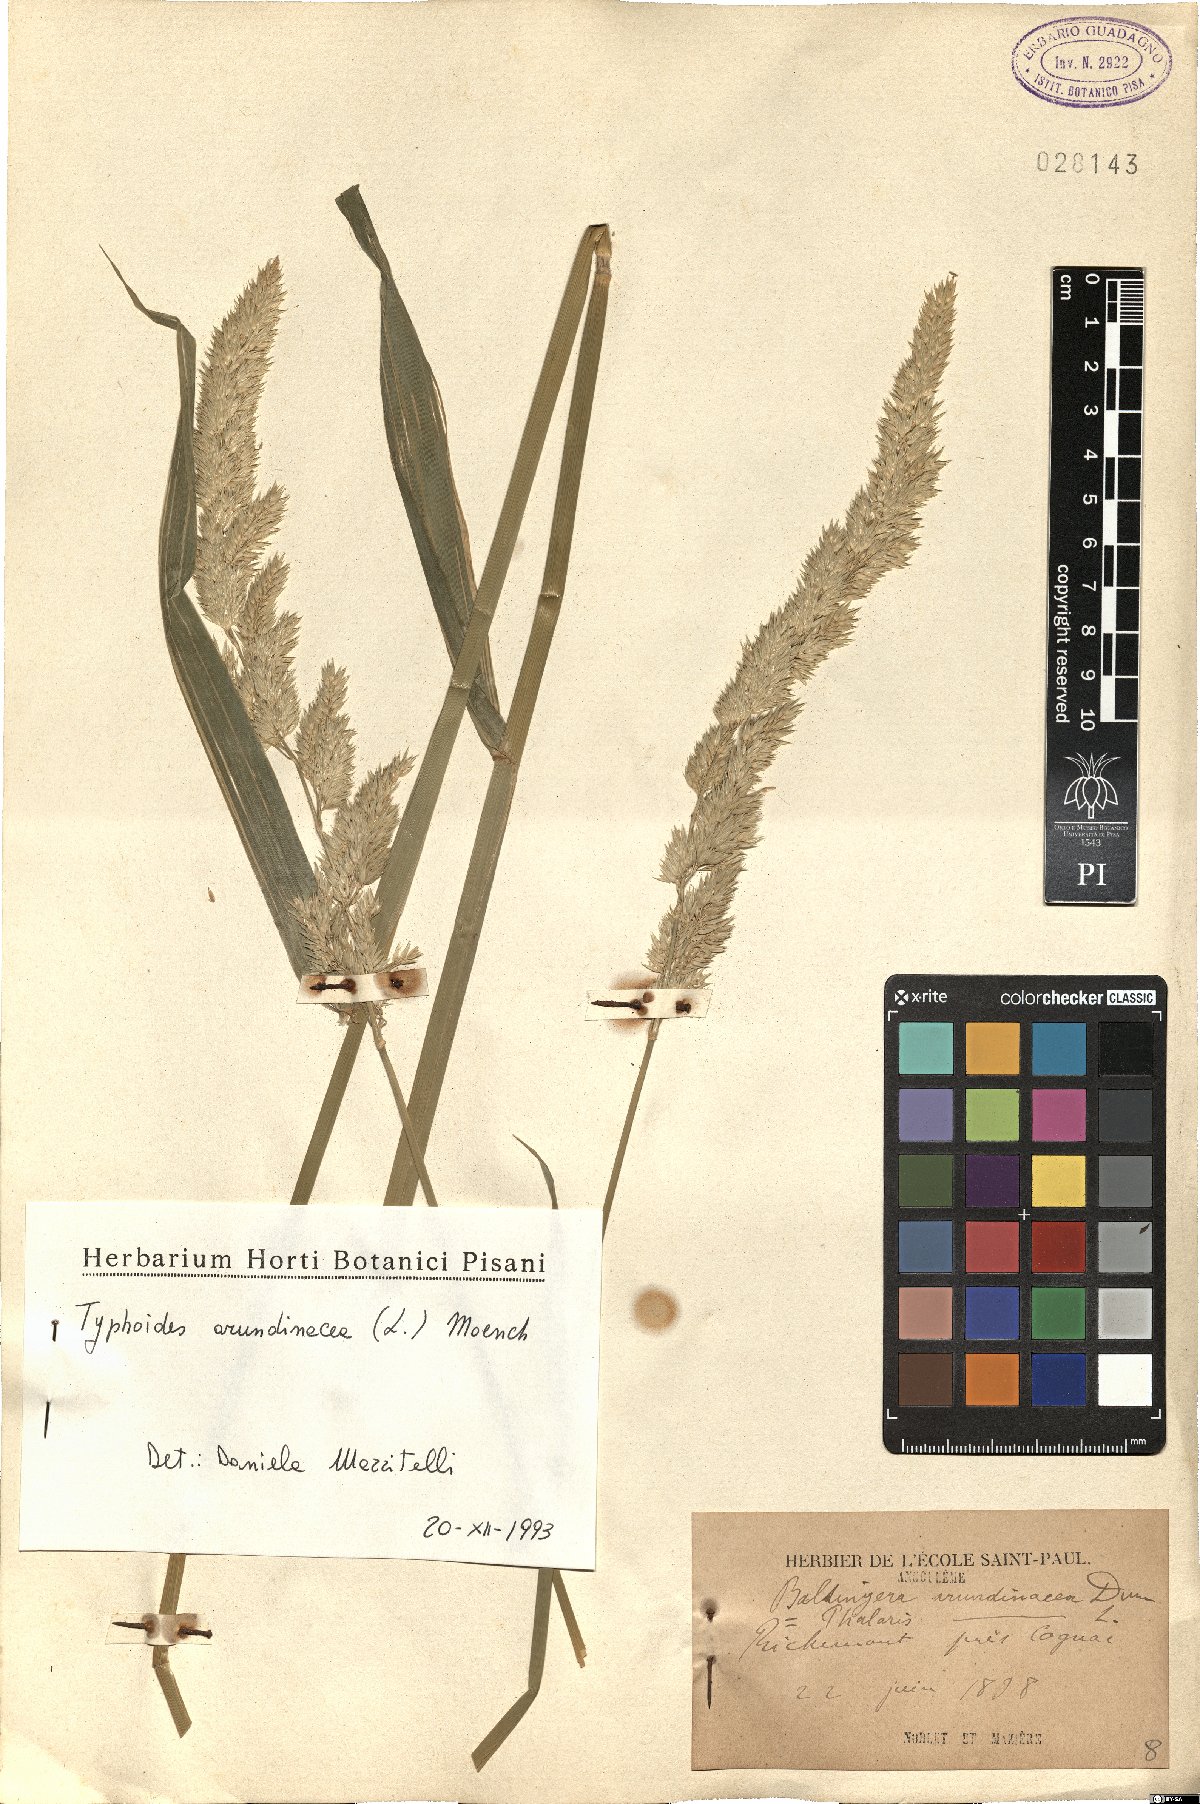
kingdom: Plantae
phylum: Tracheophyta
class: Liliopsida
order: Poales
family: Poaceae
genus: Phalaris
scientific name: Phalaris arundinacea
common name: Reed canary-grass
